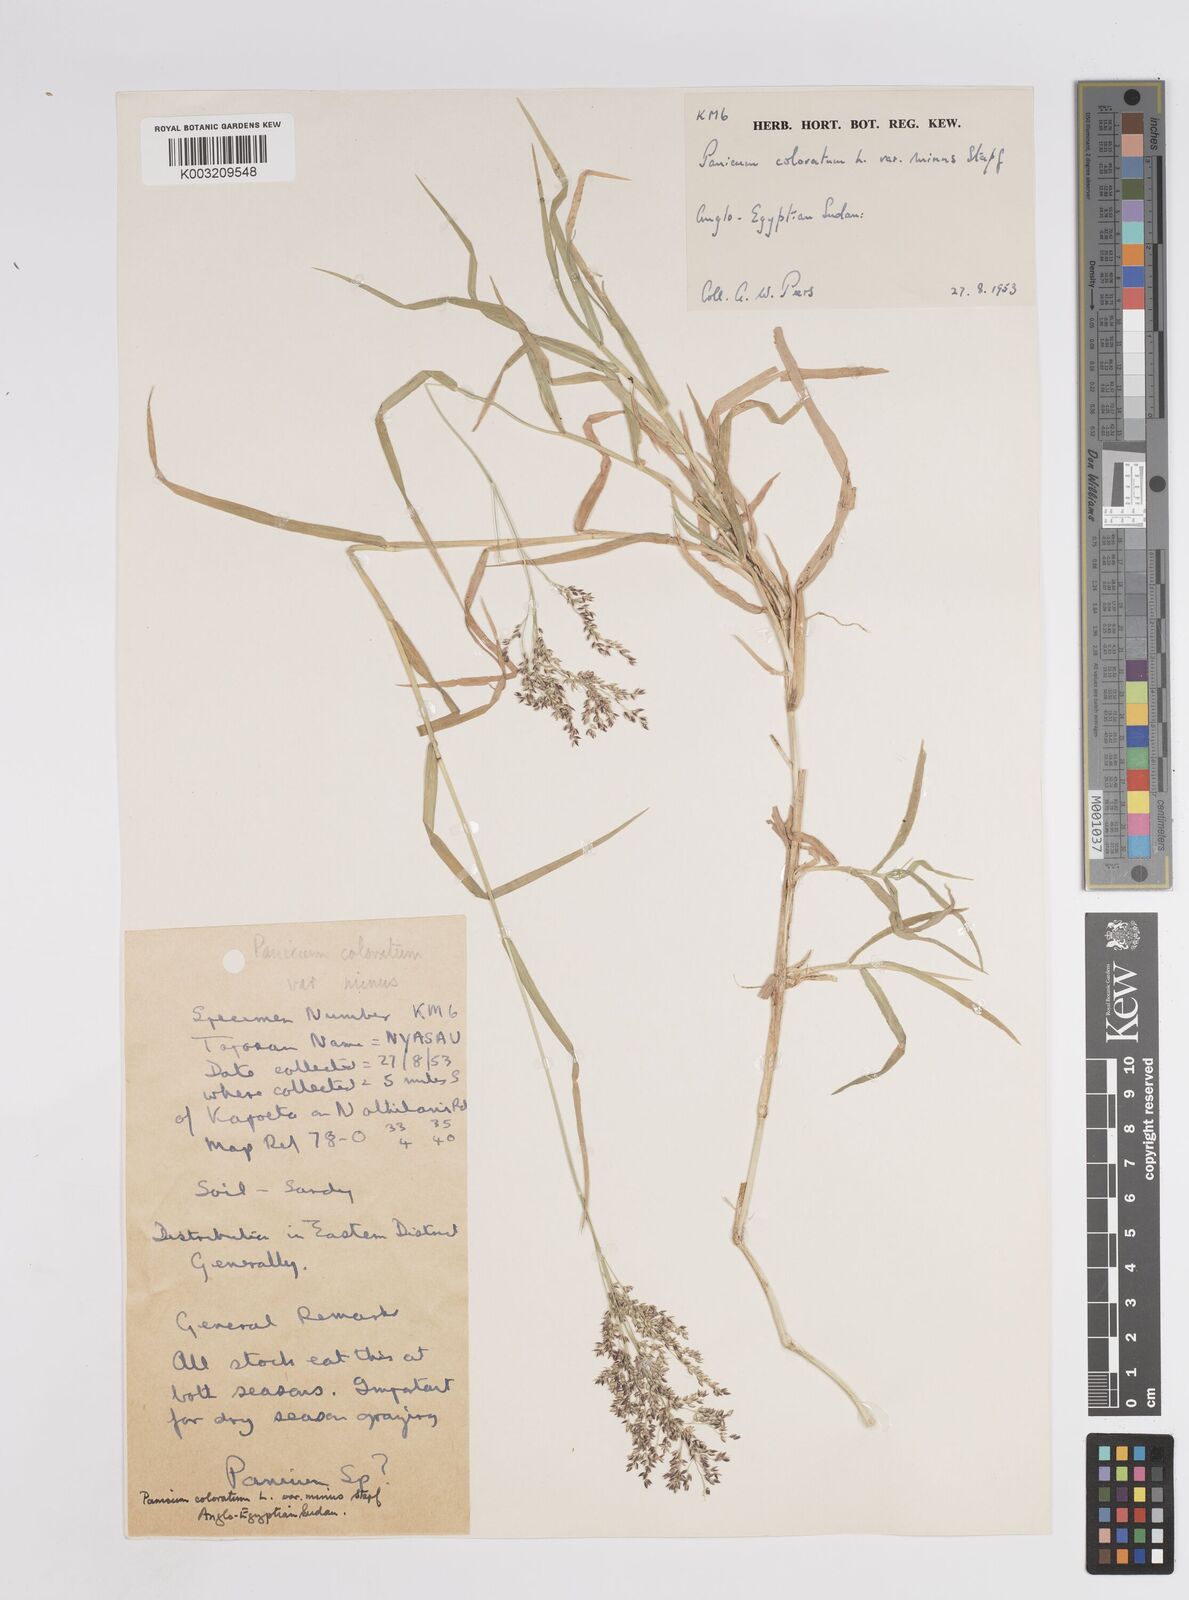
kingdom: Plantae
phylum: Tracheophyta
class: Liliopsida
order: Poales
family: Poaceae
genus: Panicum
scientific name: Panicum coloratum
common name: Kleingrass
